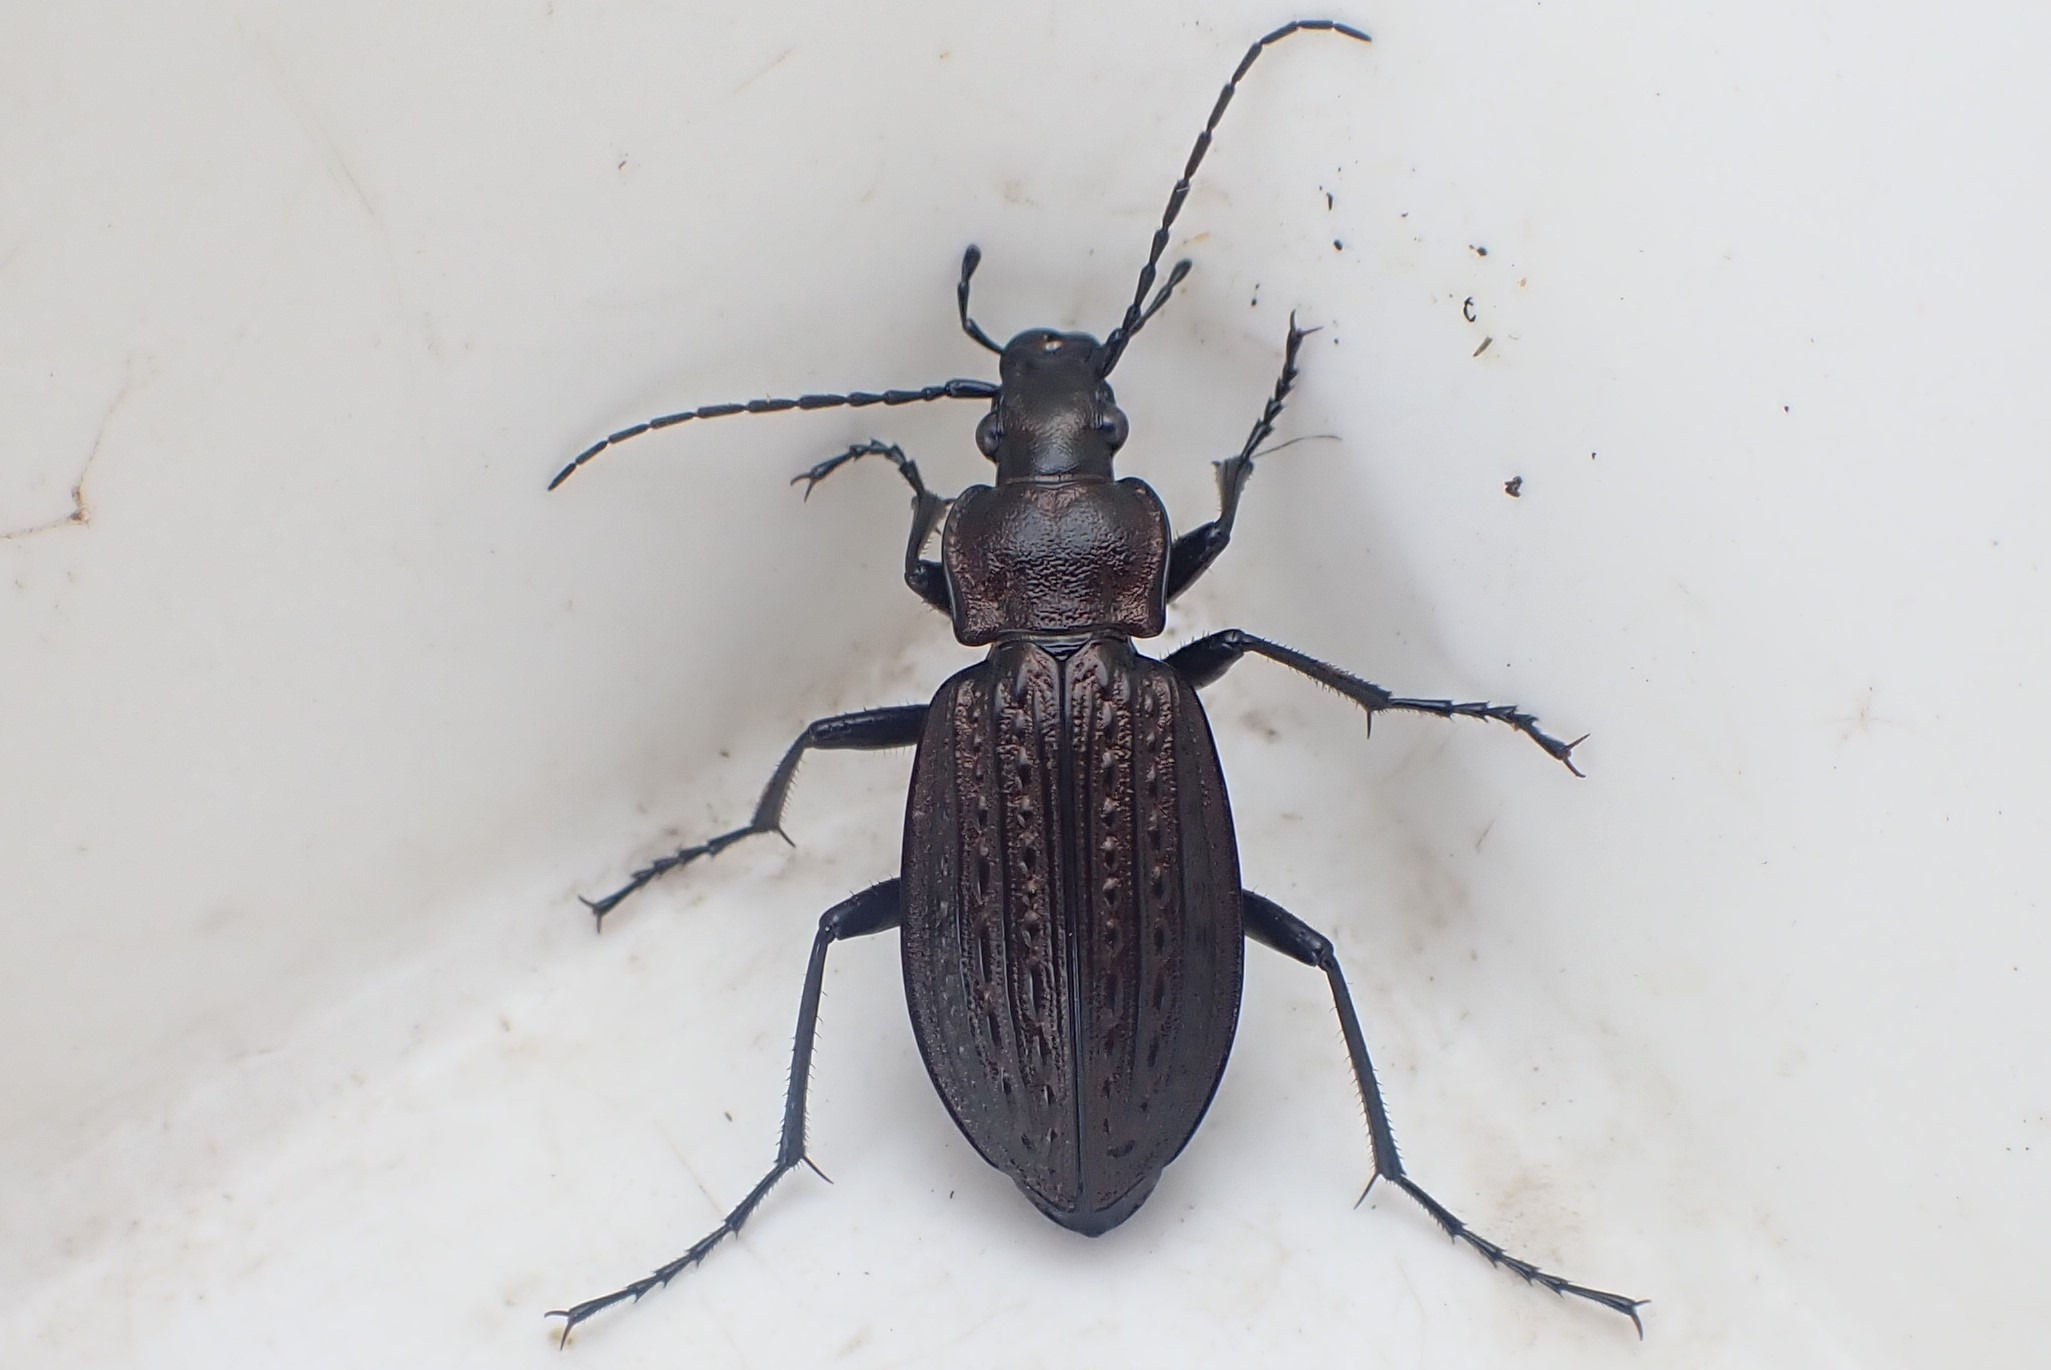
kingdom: Animalia
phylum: Arthropoda
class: Insecta
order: Coleoptera
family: Carabidae
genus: Carabus
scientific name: Carabus granulatus
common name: Kornet løber
